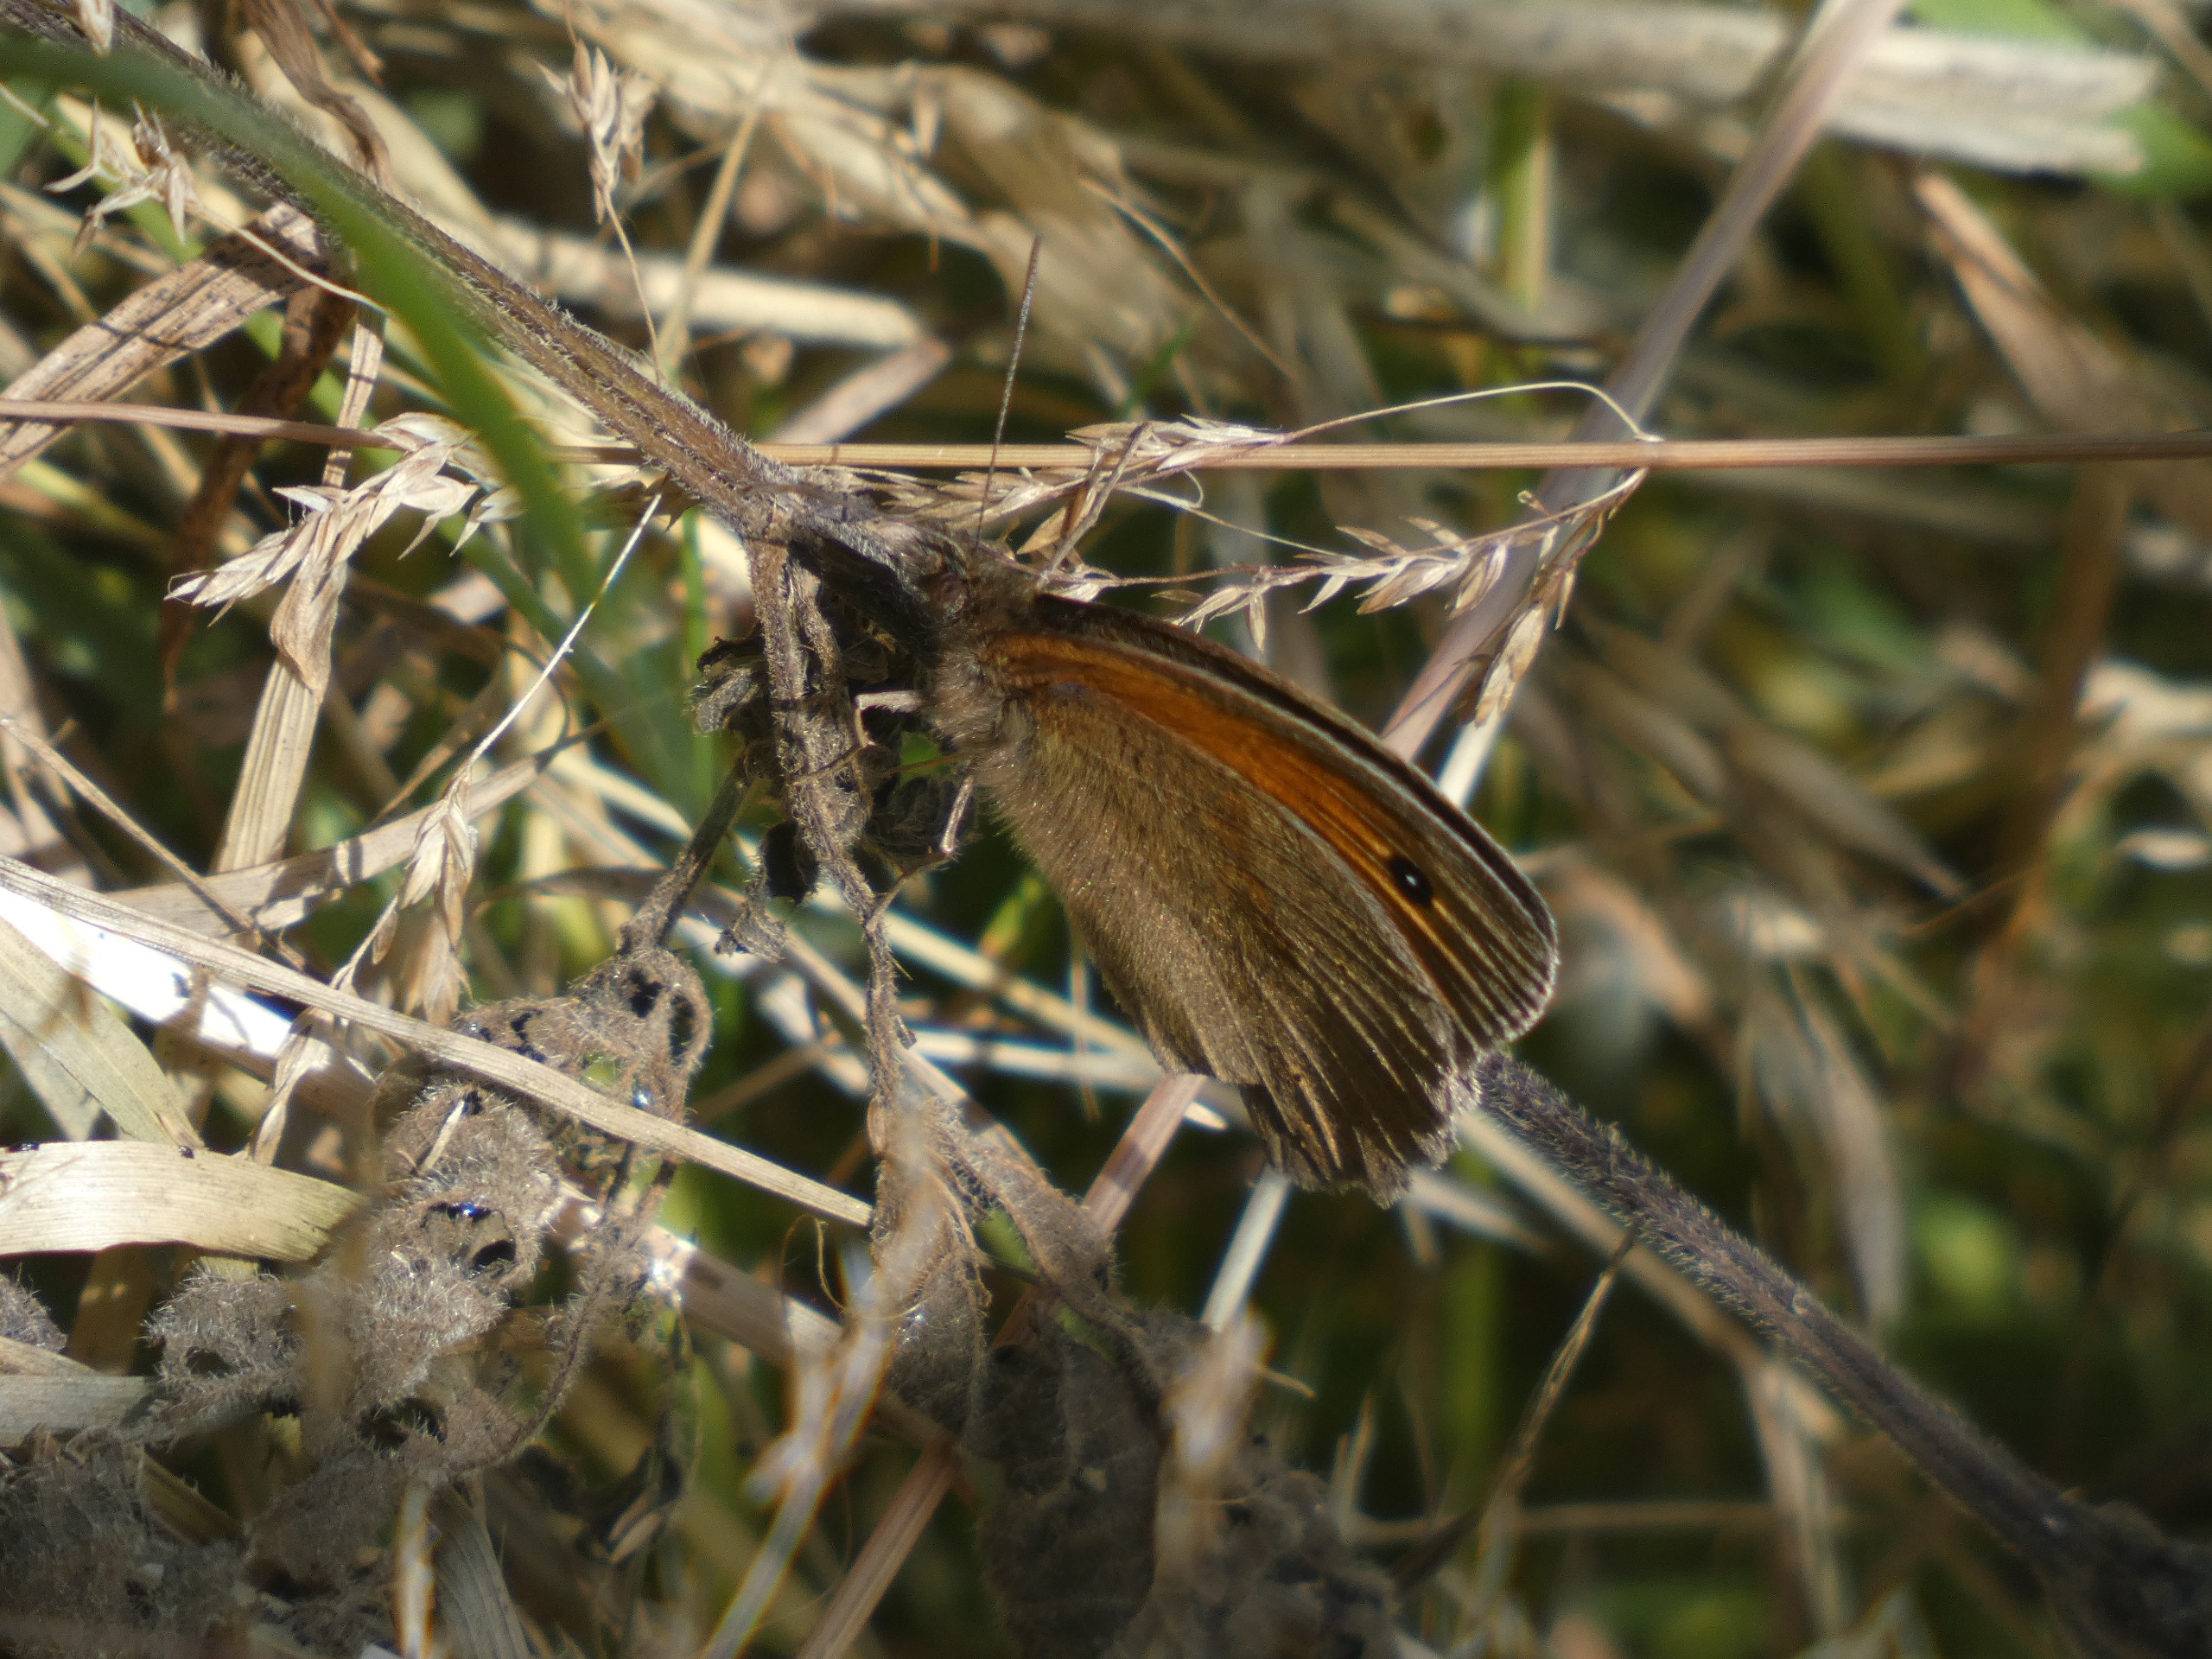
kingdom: Animalia
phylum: Arthropoda
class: Insecta
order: Lepidoptera
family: Nymphalidae
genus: Maniola
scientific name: Maniola jurtina
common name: Græsrandøje
